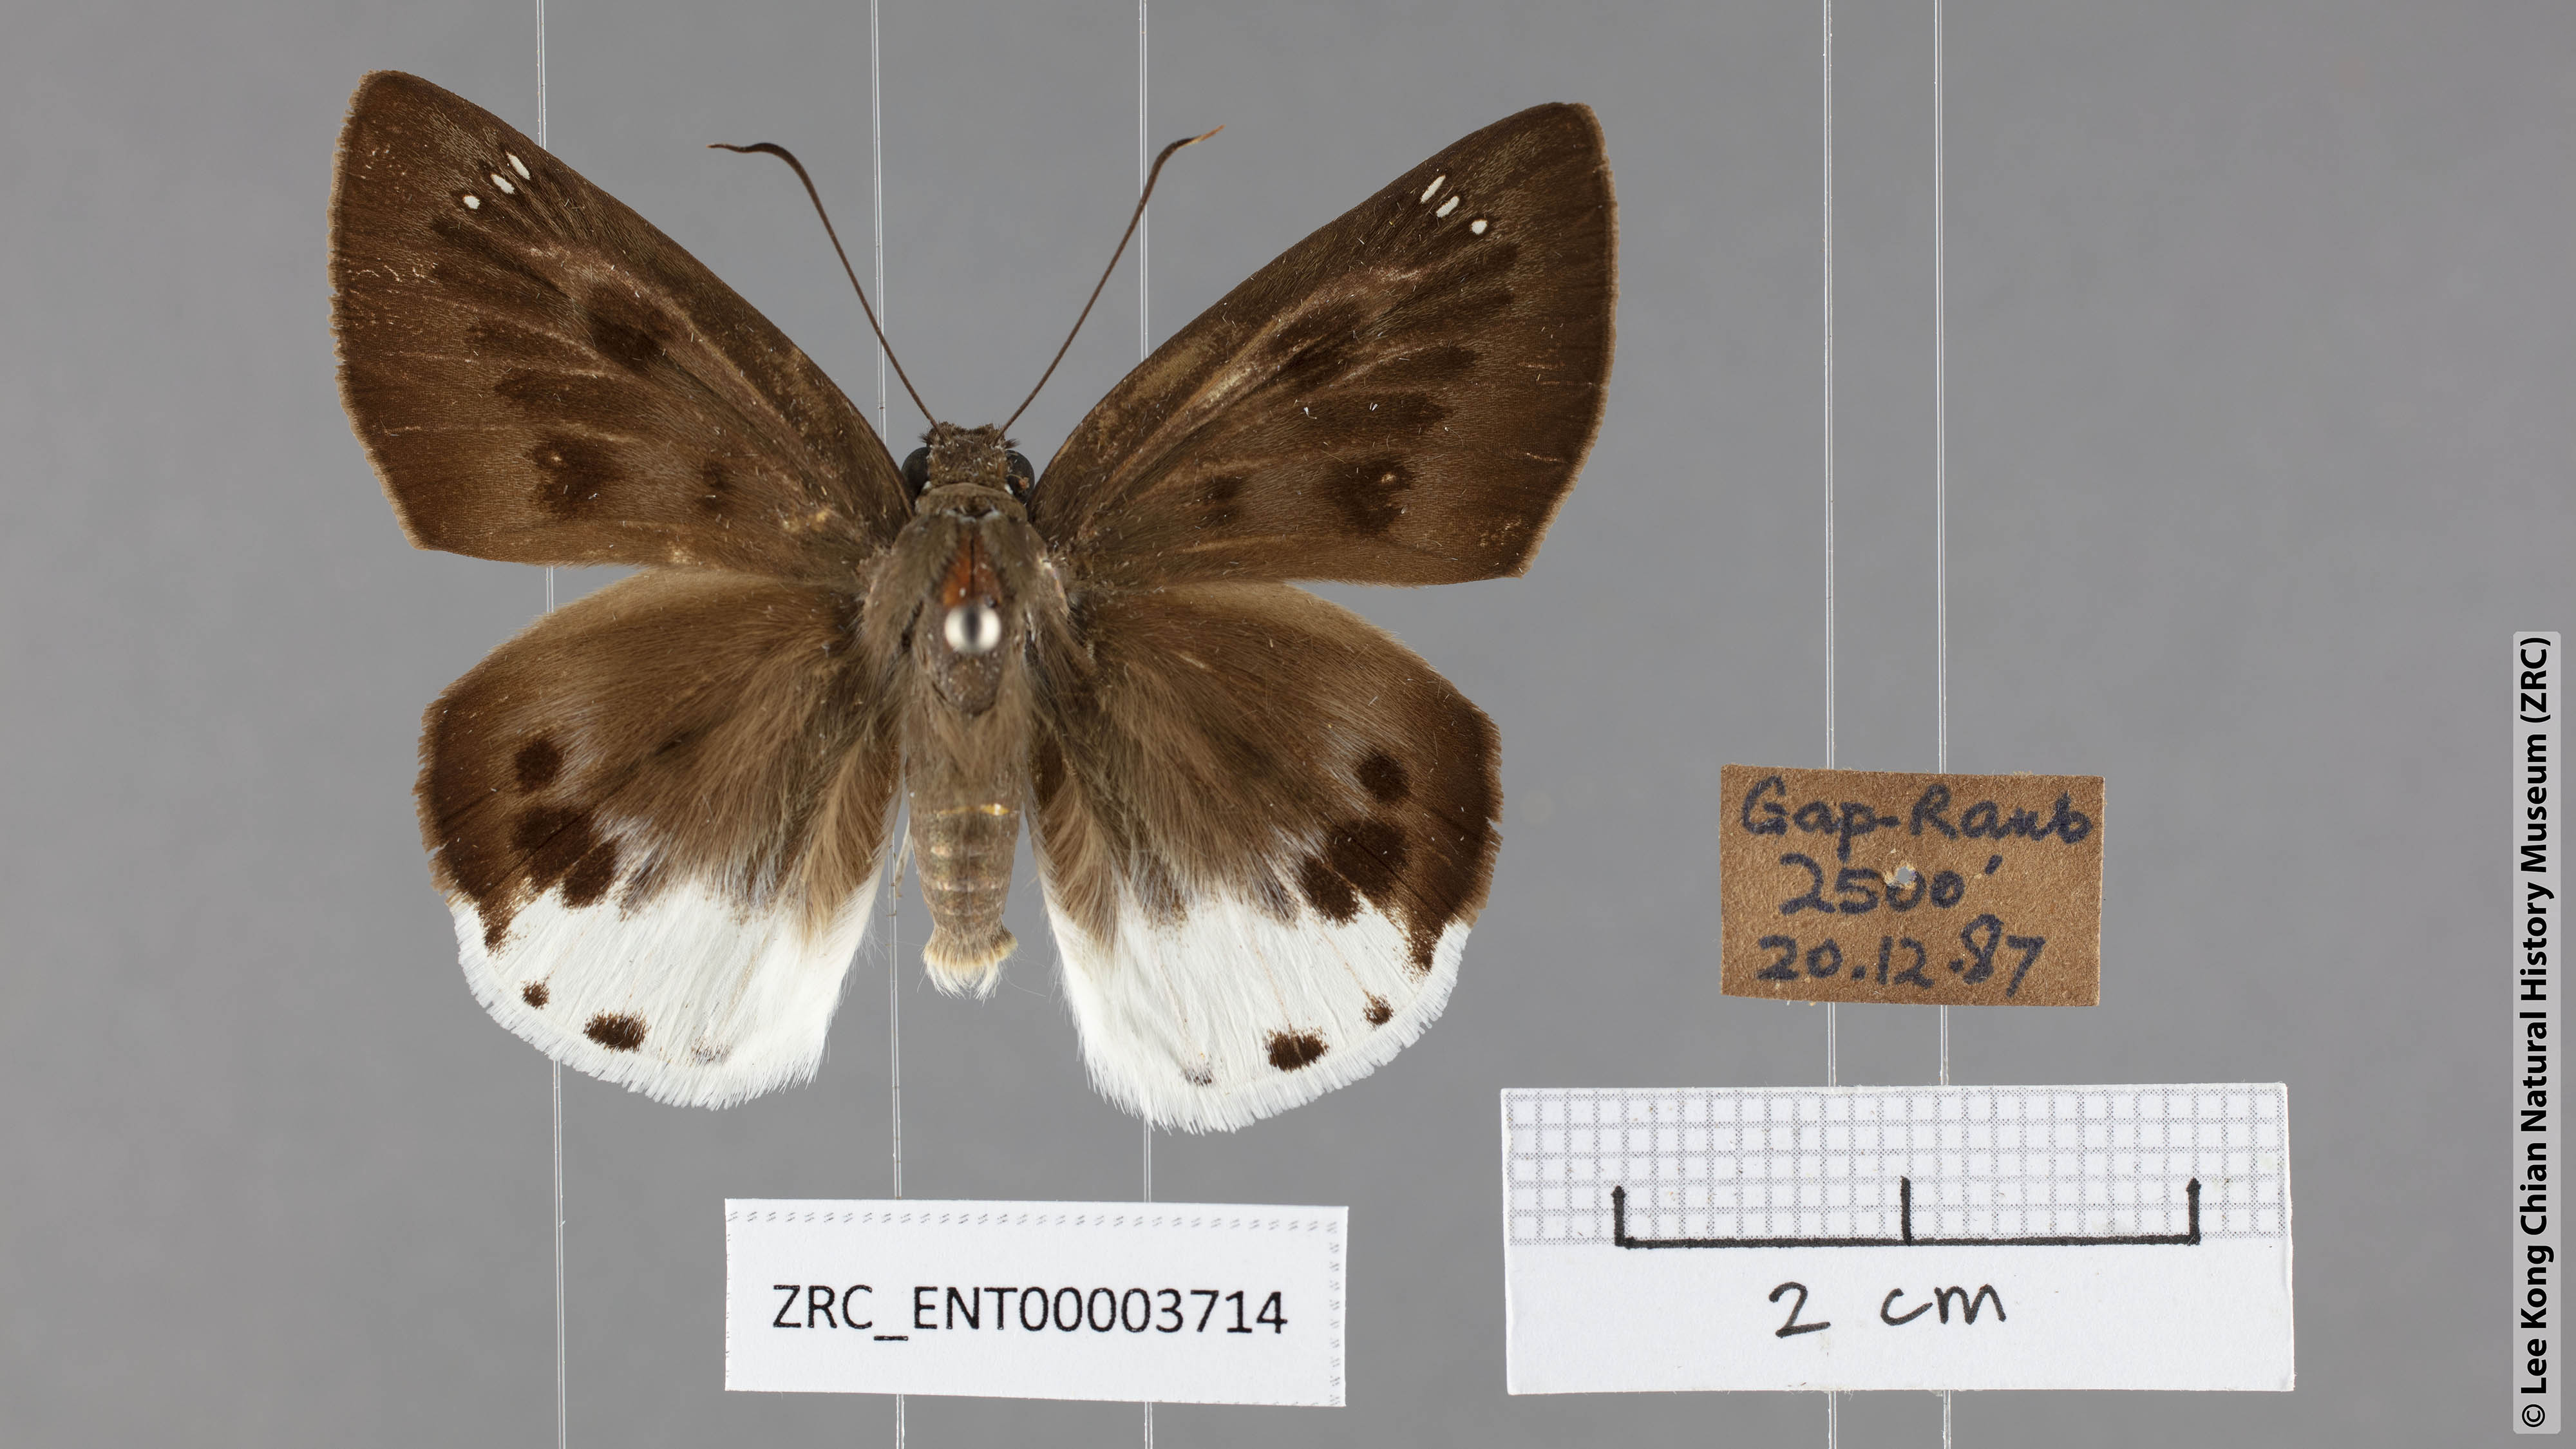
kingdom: Animalia
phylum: Arthropoda
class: Insecta
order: Lepidoptera
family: Hesperiidae
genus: Tagiades
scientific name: Tagiades parra
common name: Straight snow flat
